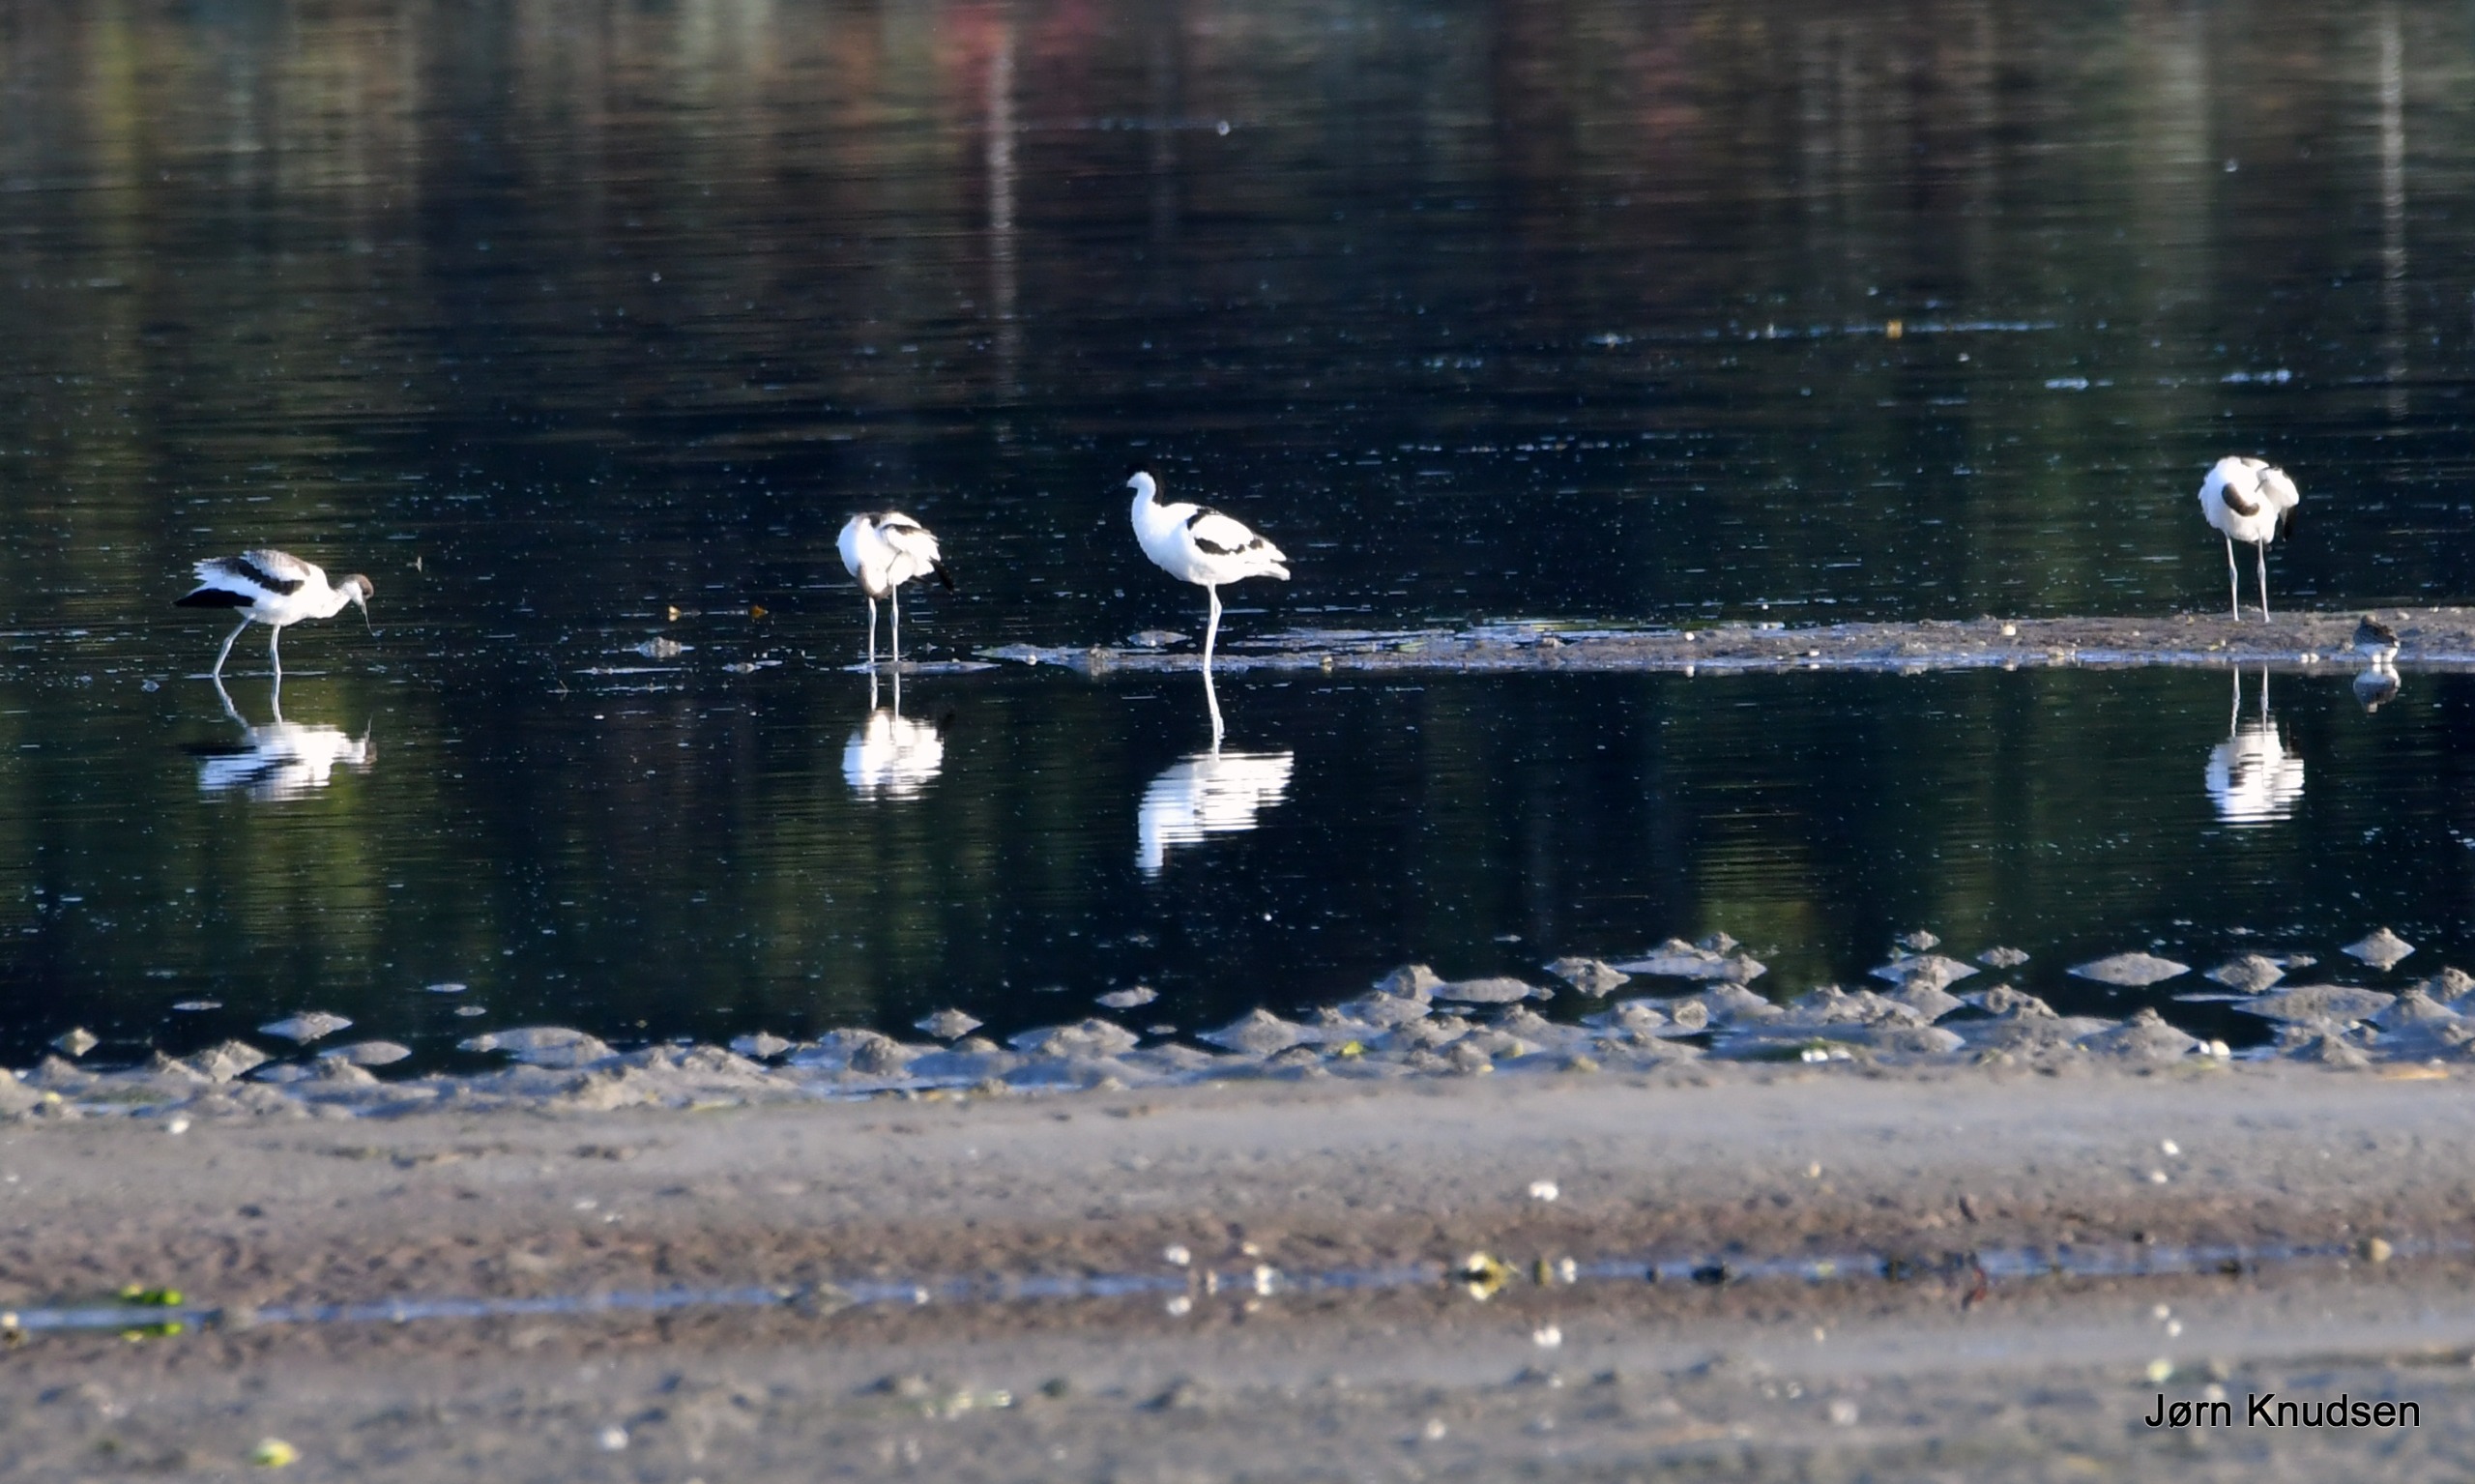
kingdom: Animalia
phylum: Chordata
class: Aves
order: Charadriiformes
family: Recurvirostridae
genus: Recurvirostra
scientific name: Recurvirostra avosetta
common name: Klyde
